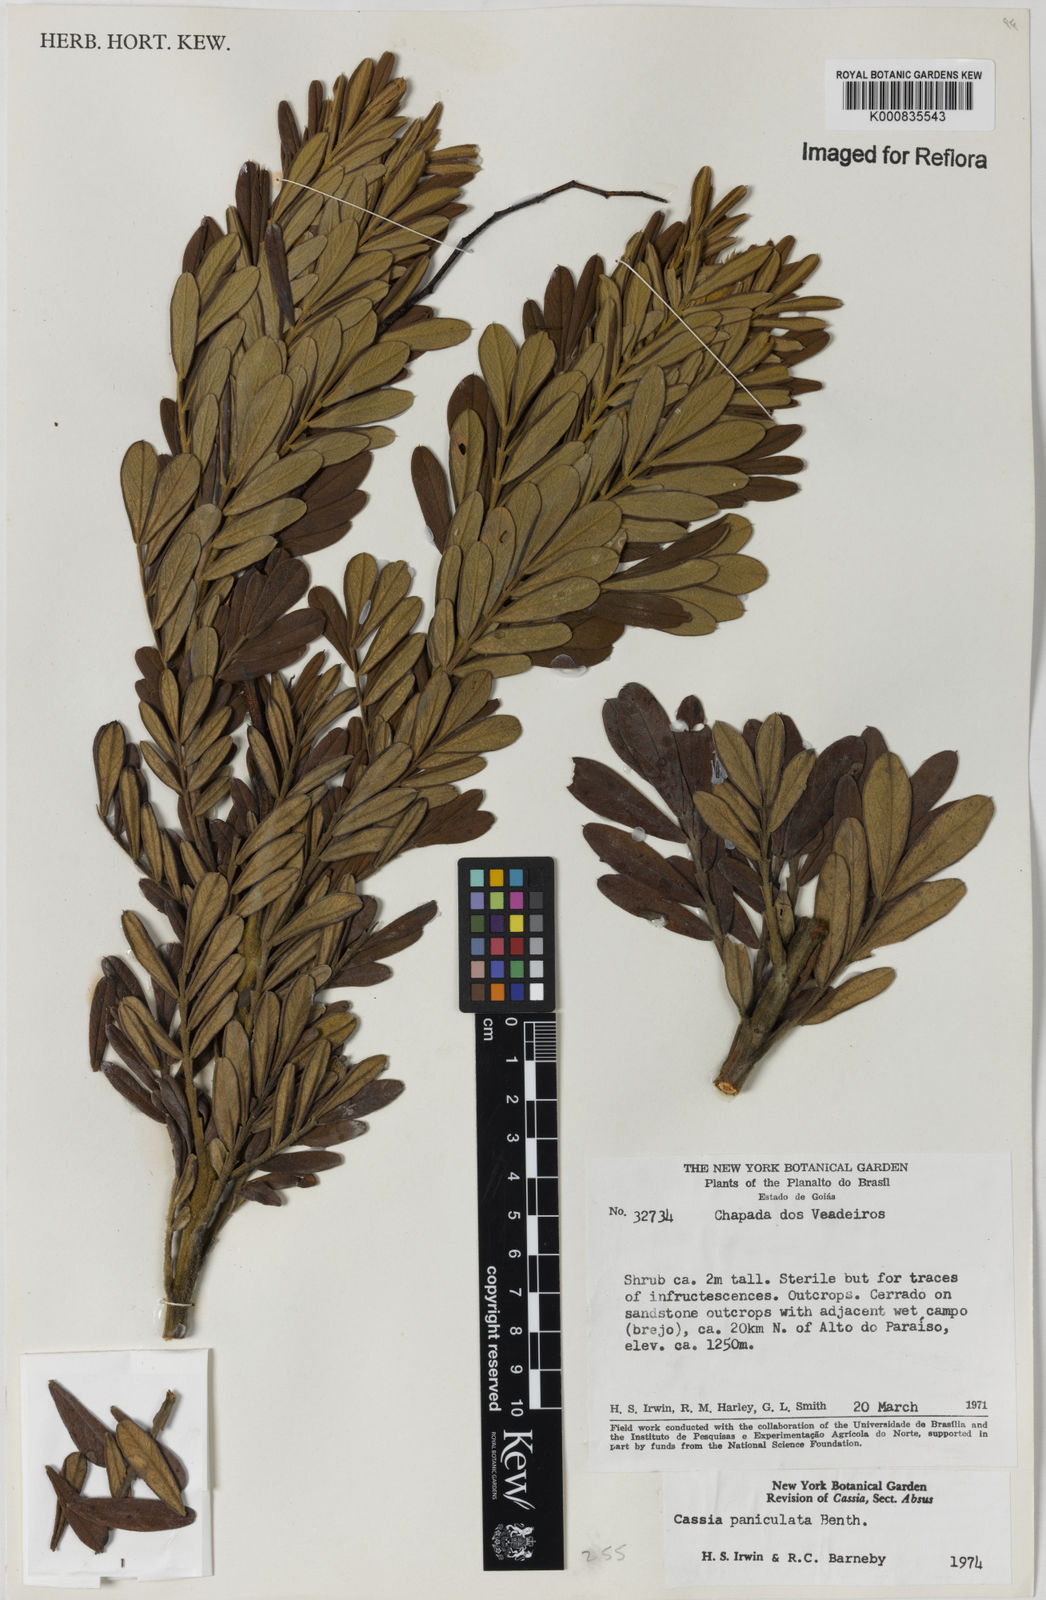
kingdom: Plantae
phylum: Tracheophyta
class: Magnoliopsida
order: Fabales
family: Fabaceae
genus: Chamaecrista
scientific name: Chamaecrista paniculata
